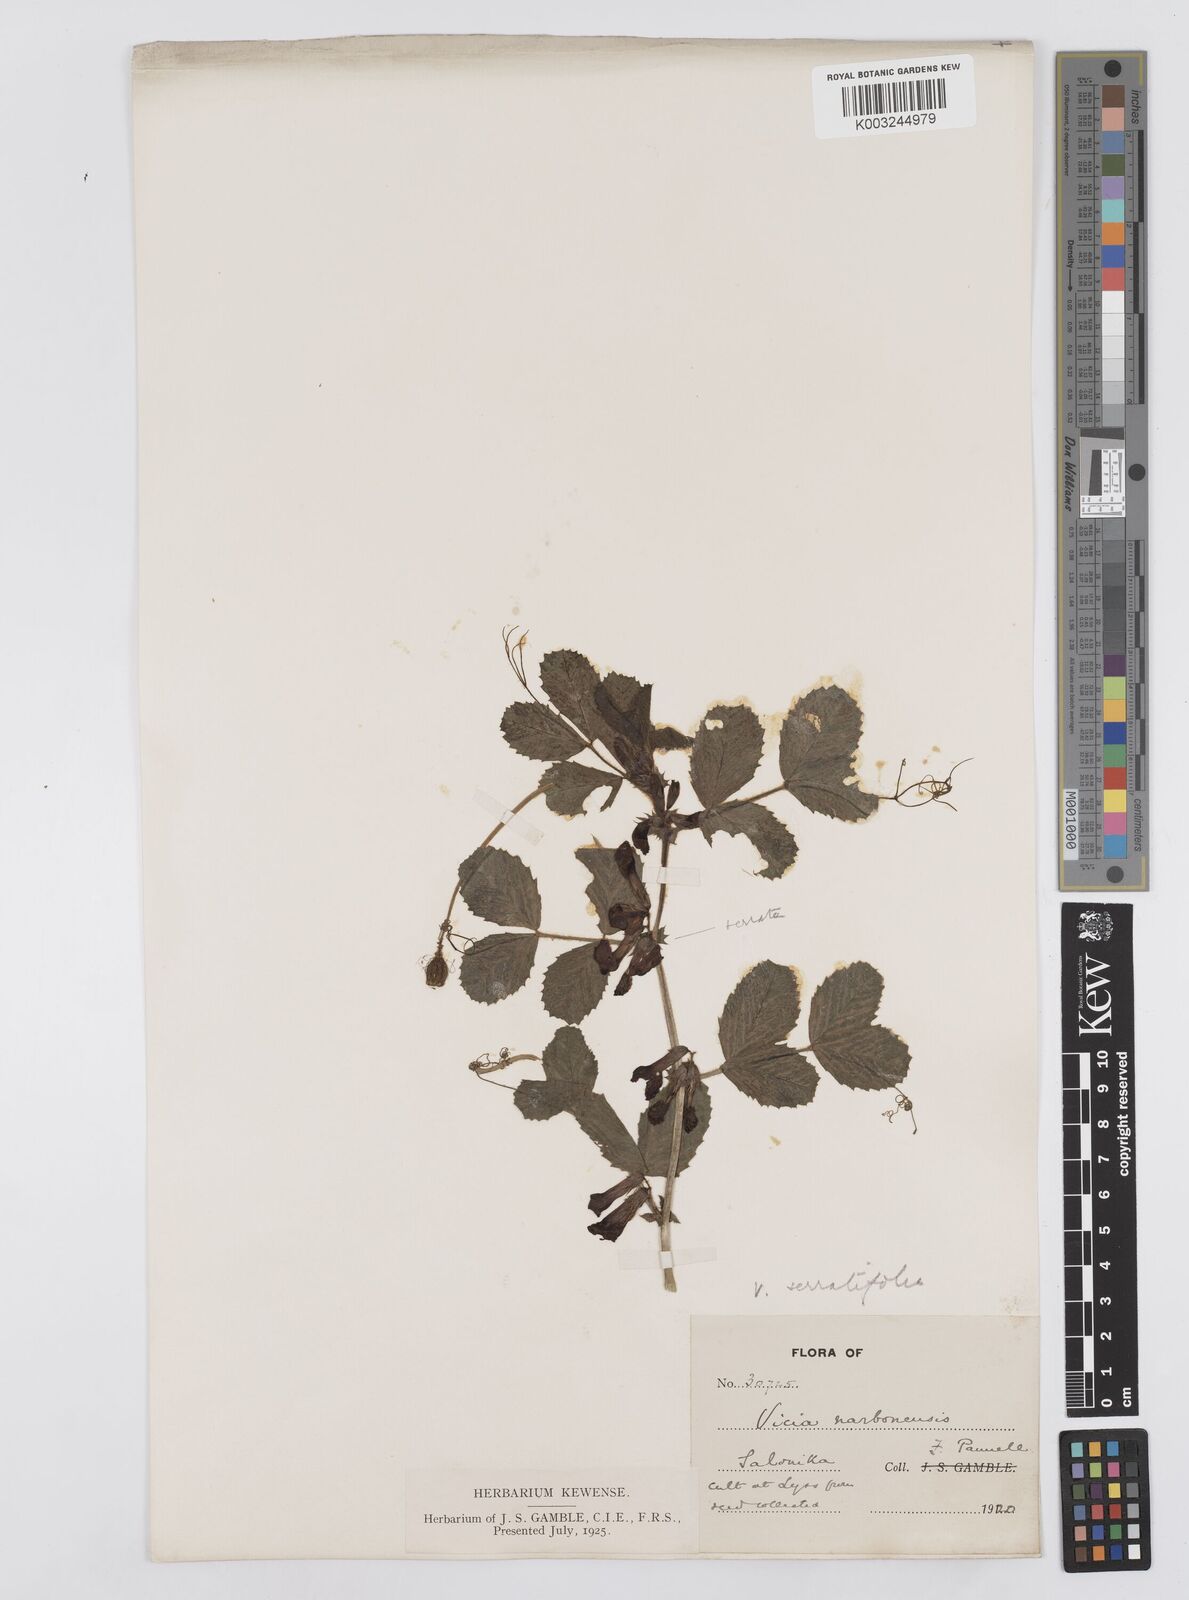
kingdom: Plantae
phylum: Tracheophyta
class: Magnoliopsida
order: Fabales
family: Fabaceae
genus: Vicia
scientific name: Vicia serratifolia
